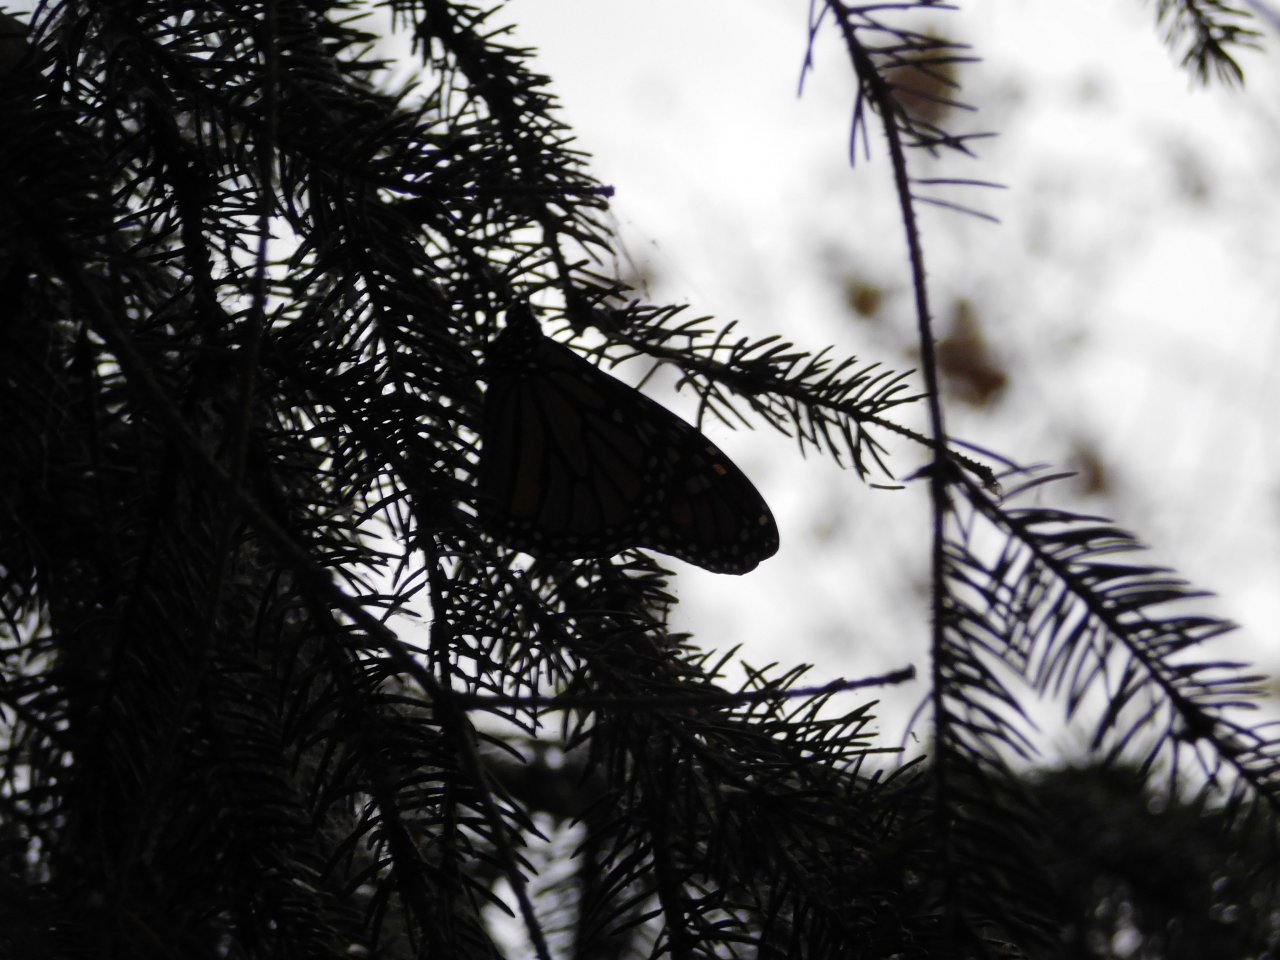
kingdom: Animalia
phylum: Arthropoda
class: Insecta
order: Lepidoptera
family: Nymphalidae
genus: Danaus
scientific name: Danaus plexippus
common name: Monarch
